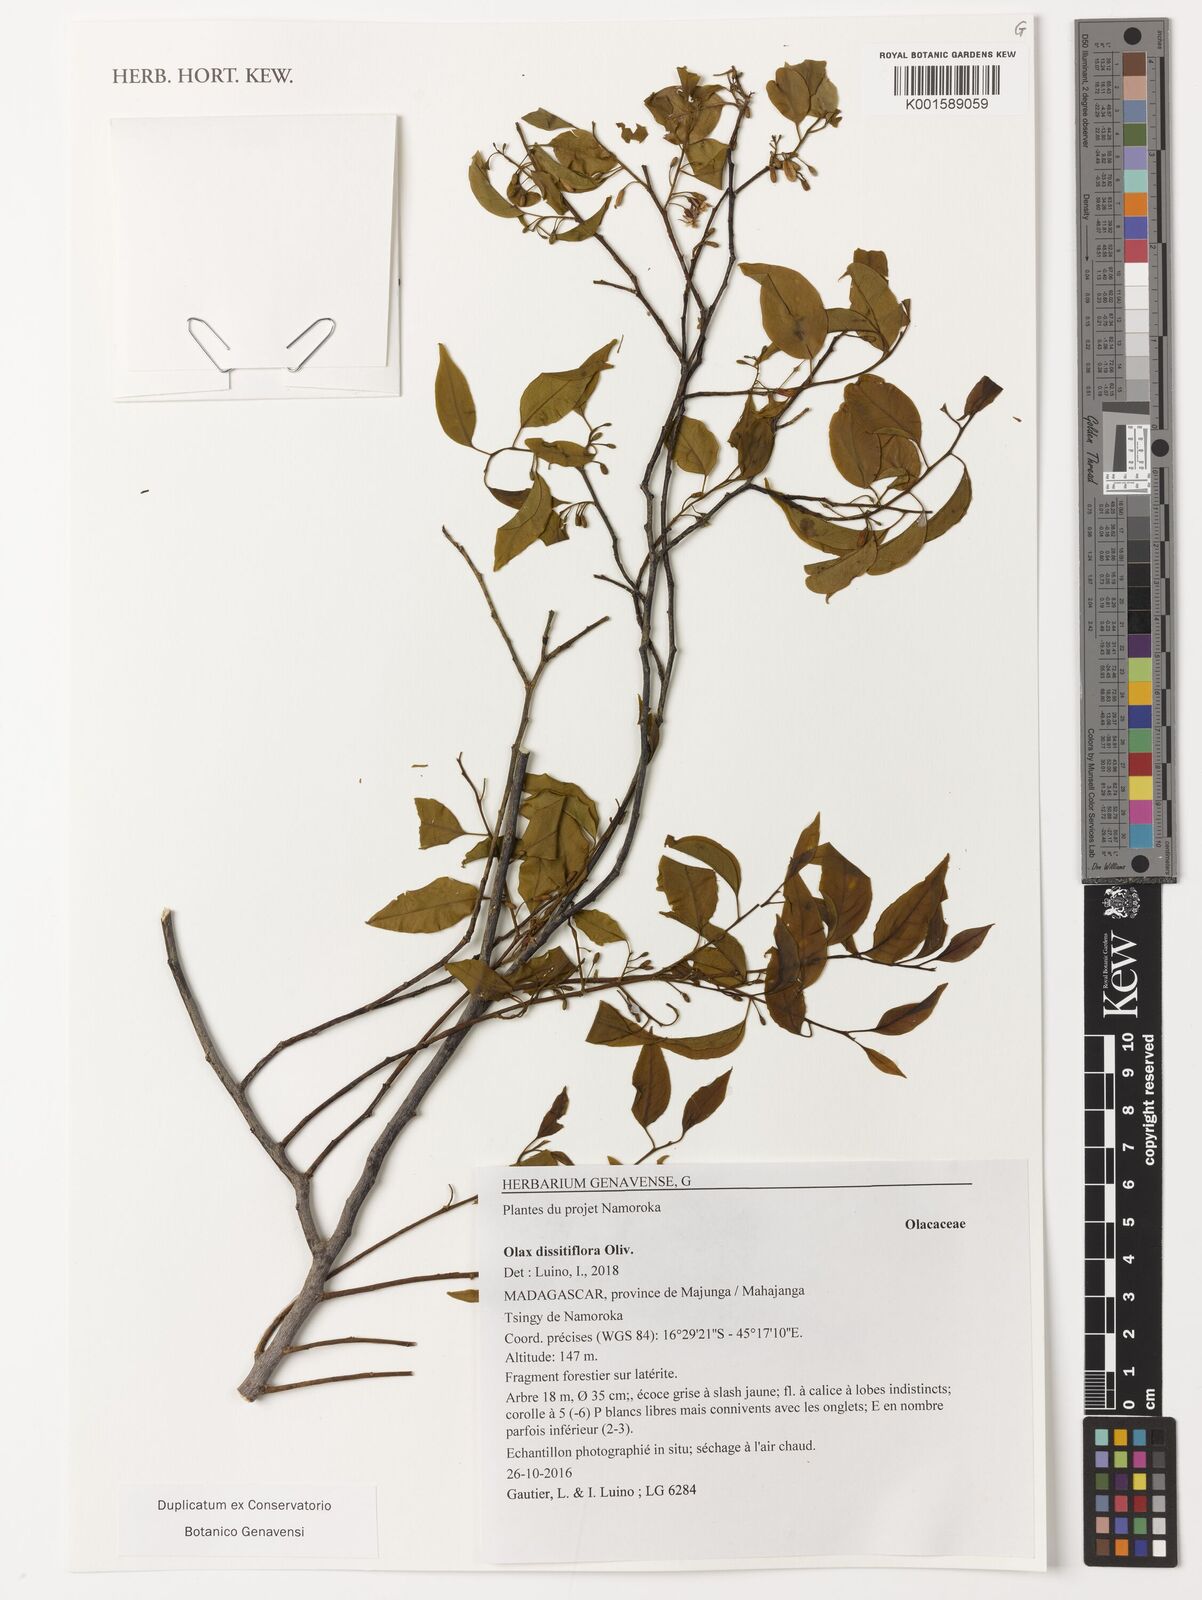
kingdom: Plantae
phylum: Tracheophyta
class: Magnoliopsida
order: Santalales
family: Olacaceae
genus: Olax
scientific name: Olax dissitiflora
